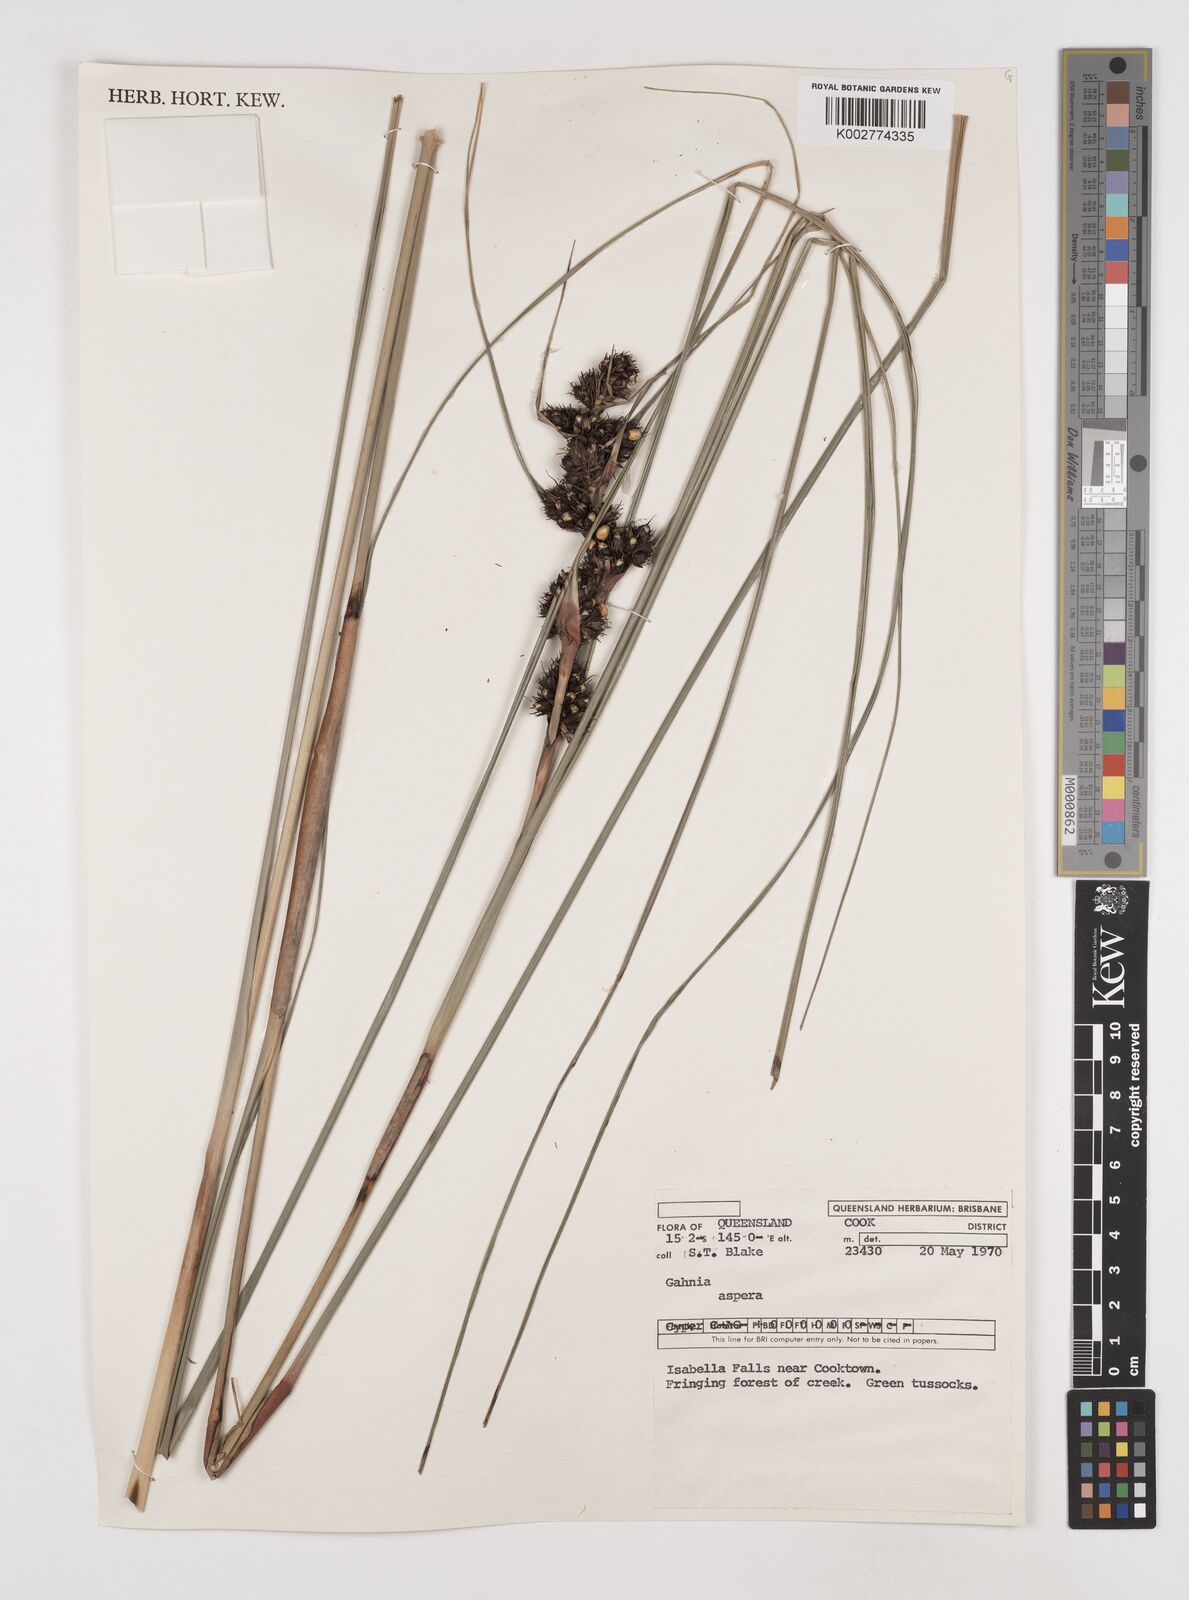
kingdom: Plantae
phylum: Tracheophyta
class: Liliopsida
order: Poales
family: Cyperaceae
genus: Gahnia
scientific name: Gahnia aspera
